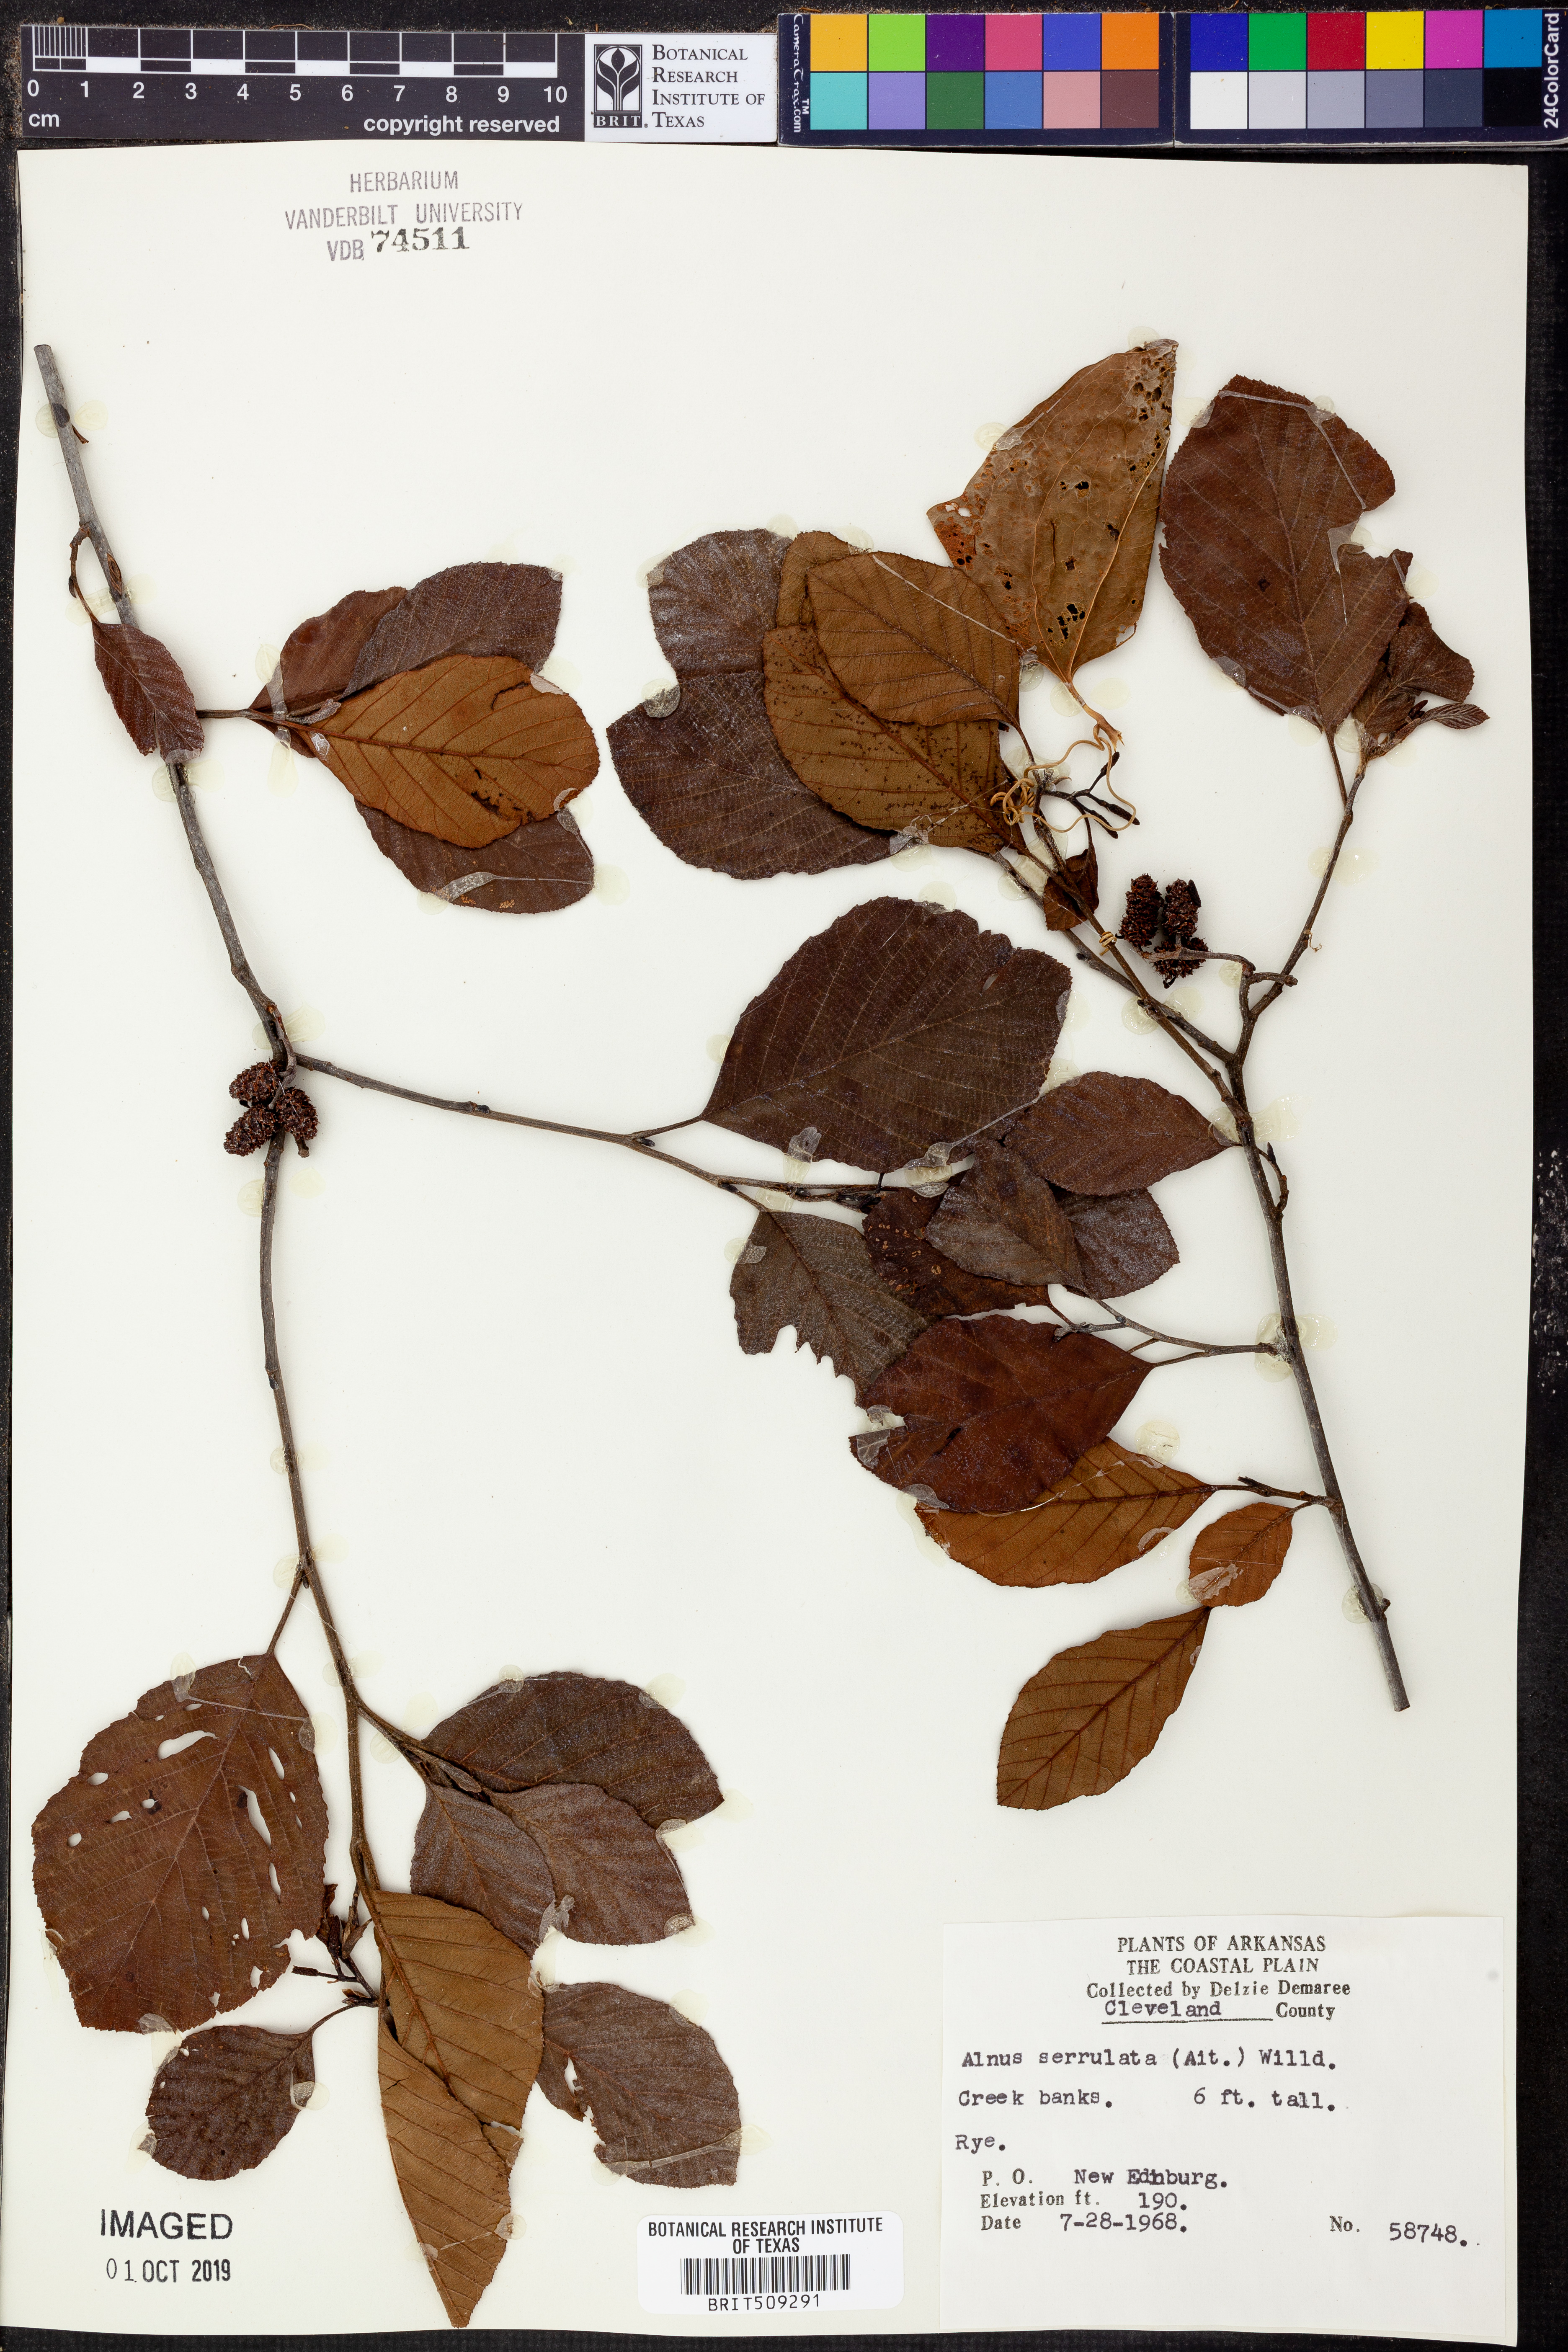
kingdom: Plantae
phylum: Tracheophyta
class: Magnoliopsida
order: Fagales
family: Betulaceae
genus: Alnus
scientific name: Alnus serrulata
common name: Hazel alder
